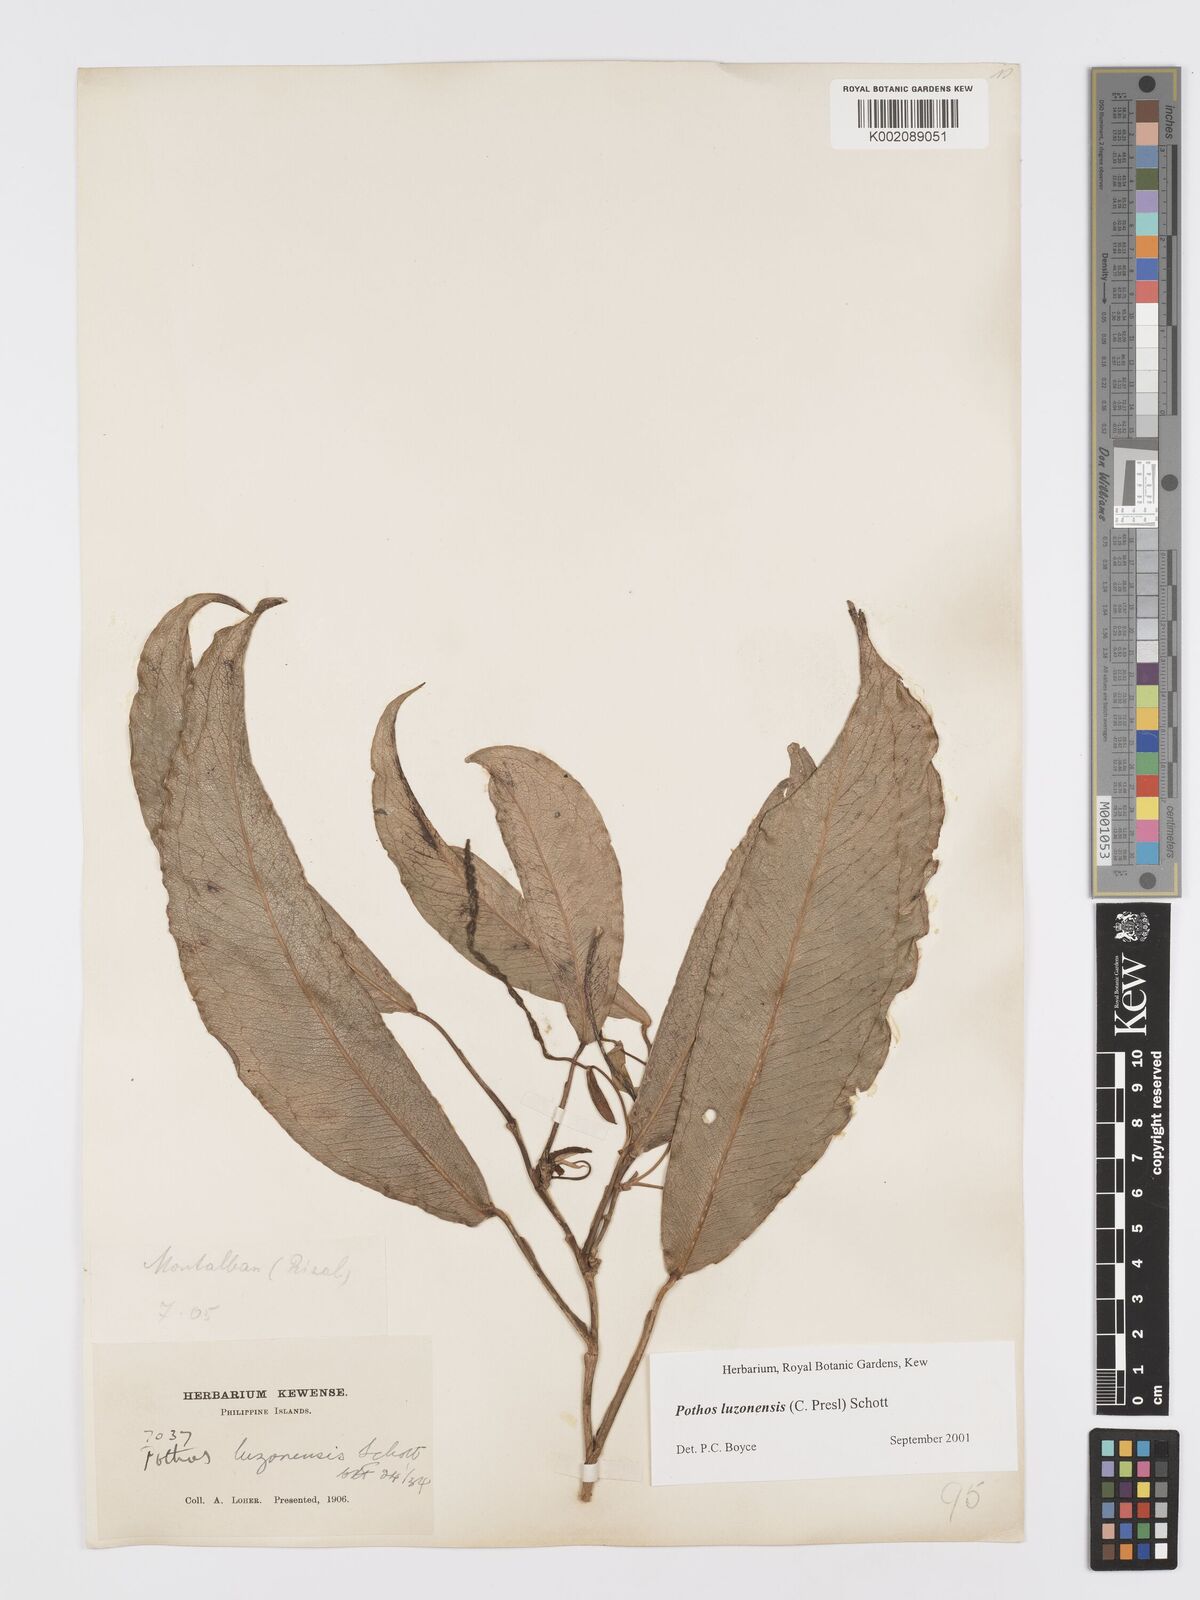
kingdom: Plantae
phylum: Tracheophyta
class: Liliopsida
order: Alismatales
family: Araceae
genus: Pothos
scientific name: Pothos luzonensis
